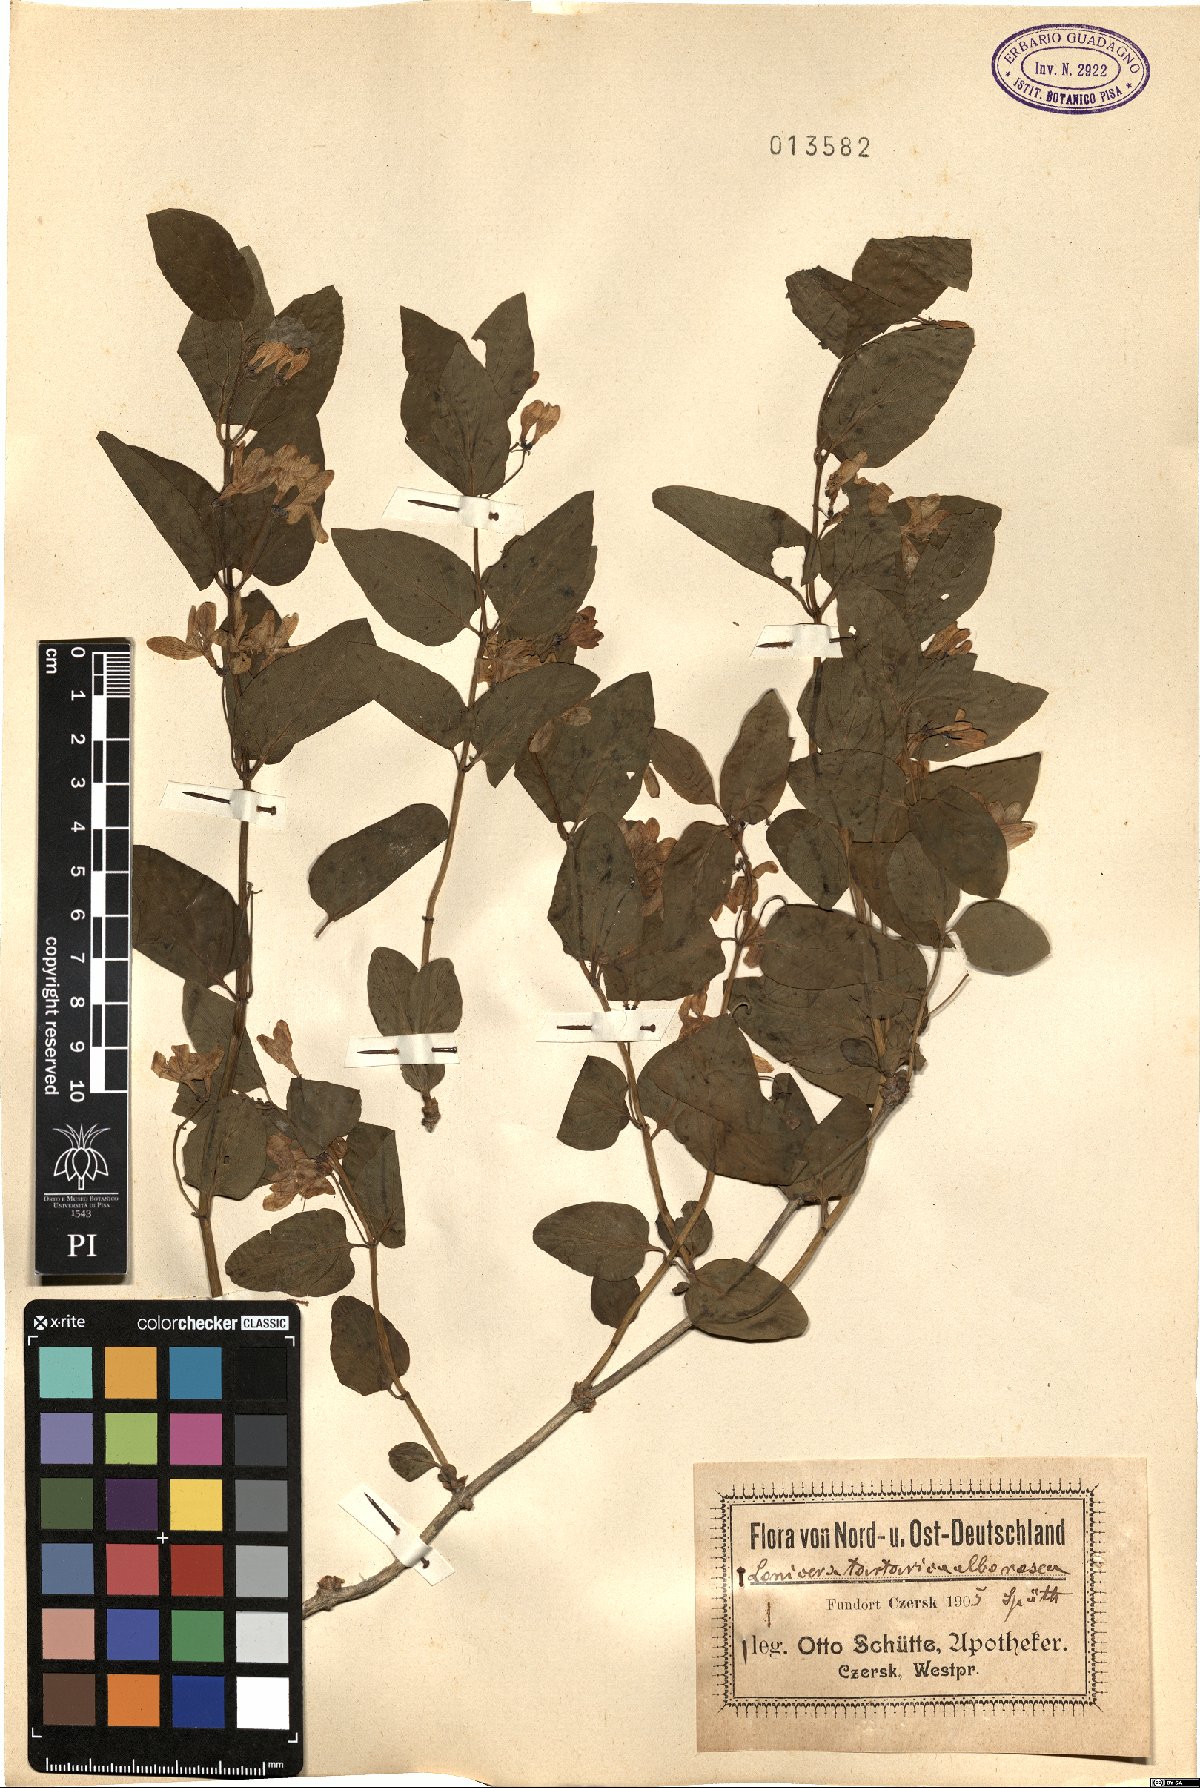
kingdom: Plantae
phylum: Tracheophyta
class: Magnoliopsida
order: Dipsacales
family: Caprifoliaceae
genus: Lonicera
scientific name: Lonicera tatarica
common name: Tatarian honeysuckle
